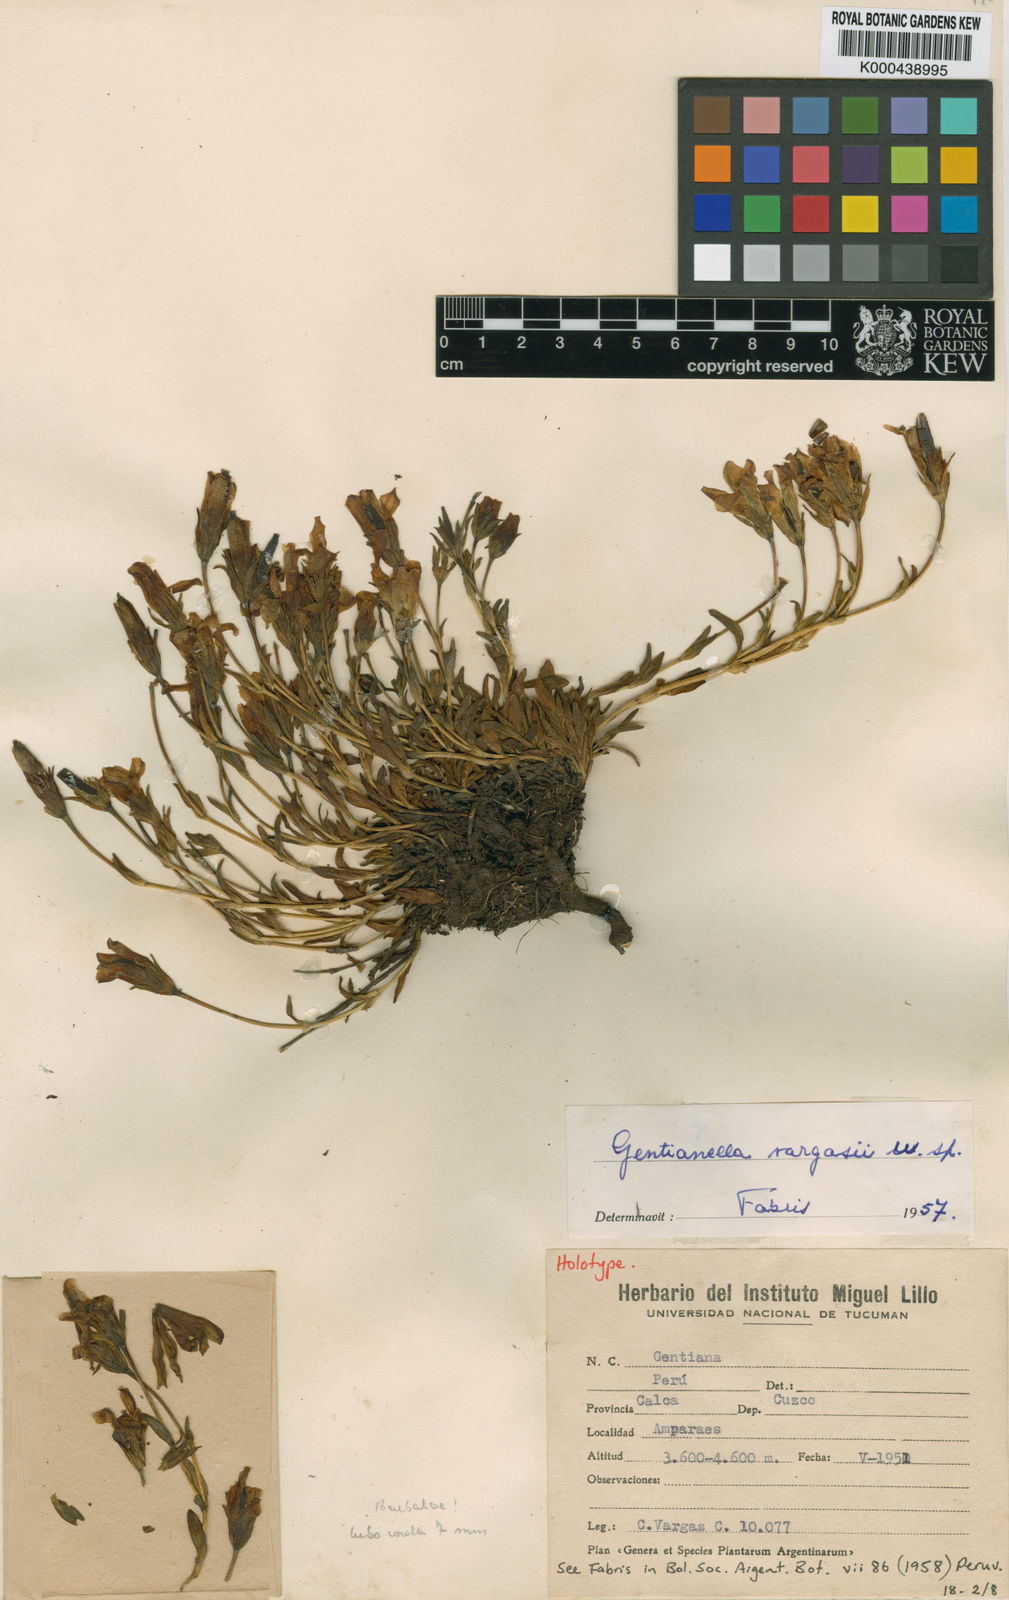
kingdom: Plantae
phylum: Tracheophyta
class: Magnoliopsida
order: Gentianales
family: Gentianaceae
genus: Gentianella
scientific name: Gentianella vargasii
